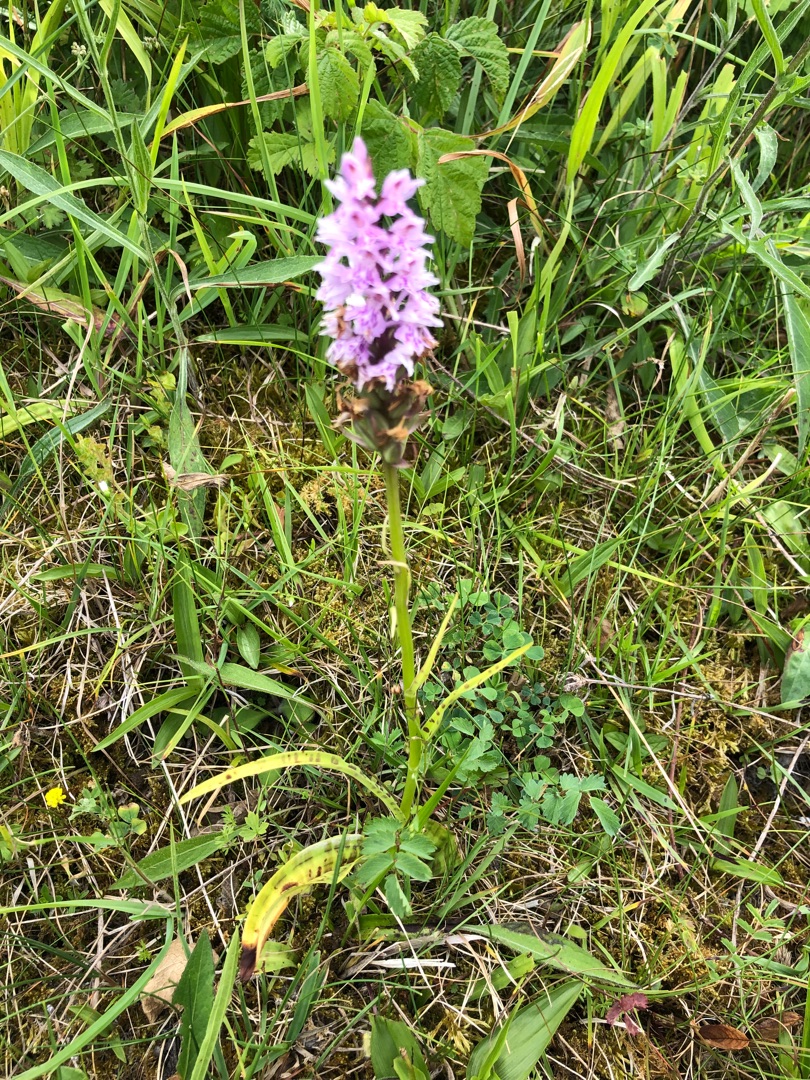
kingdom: Plantae
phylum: Tracheophyta
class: Liliopsida
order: Asparagales
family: Orchidaceae
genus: Dactylorhiza
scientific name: Dactylorhiza maculata
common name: Skov-gøgeurt
